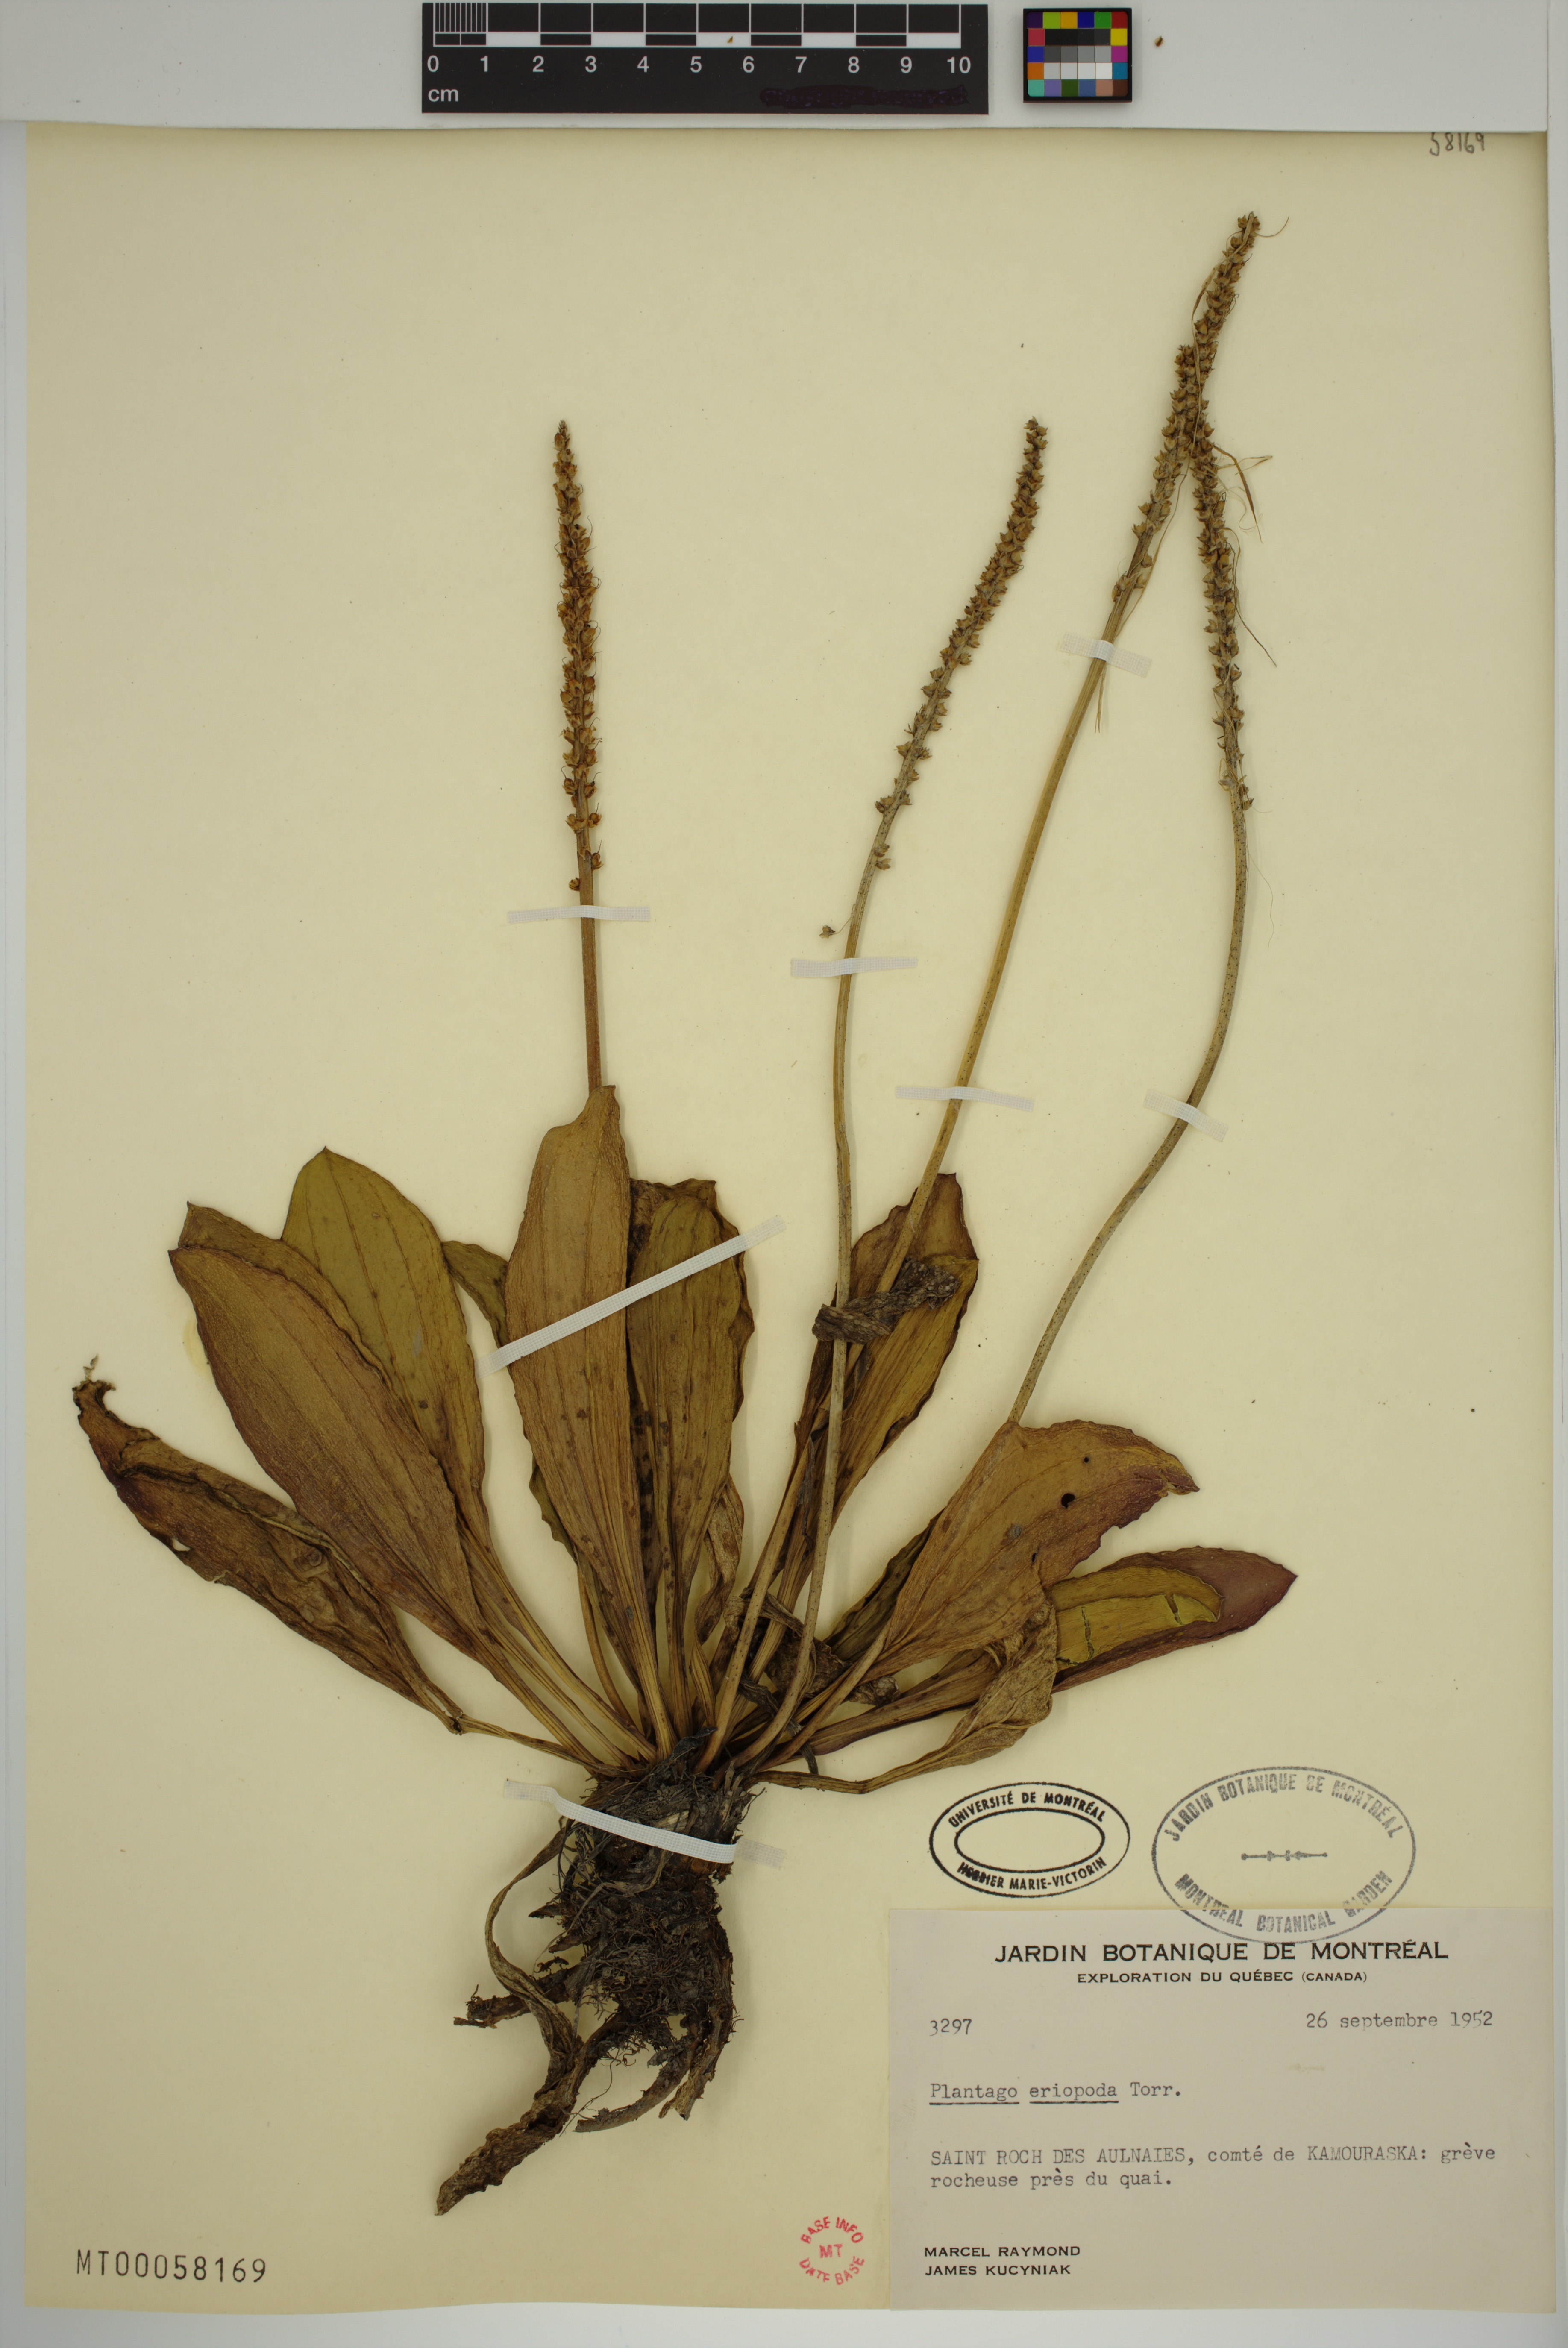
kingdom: Plantae
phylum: Tracheophyta
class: Magnoliopsida
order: Lamiales
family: Plantaginaceae
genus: Plantago
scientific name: Plantago eriopoda
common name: Alkali plantain
